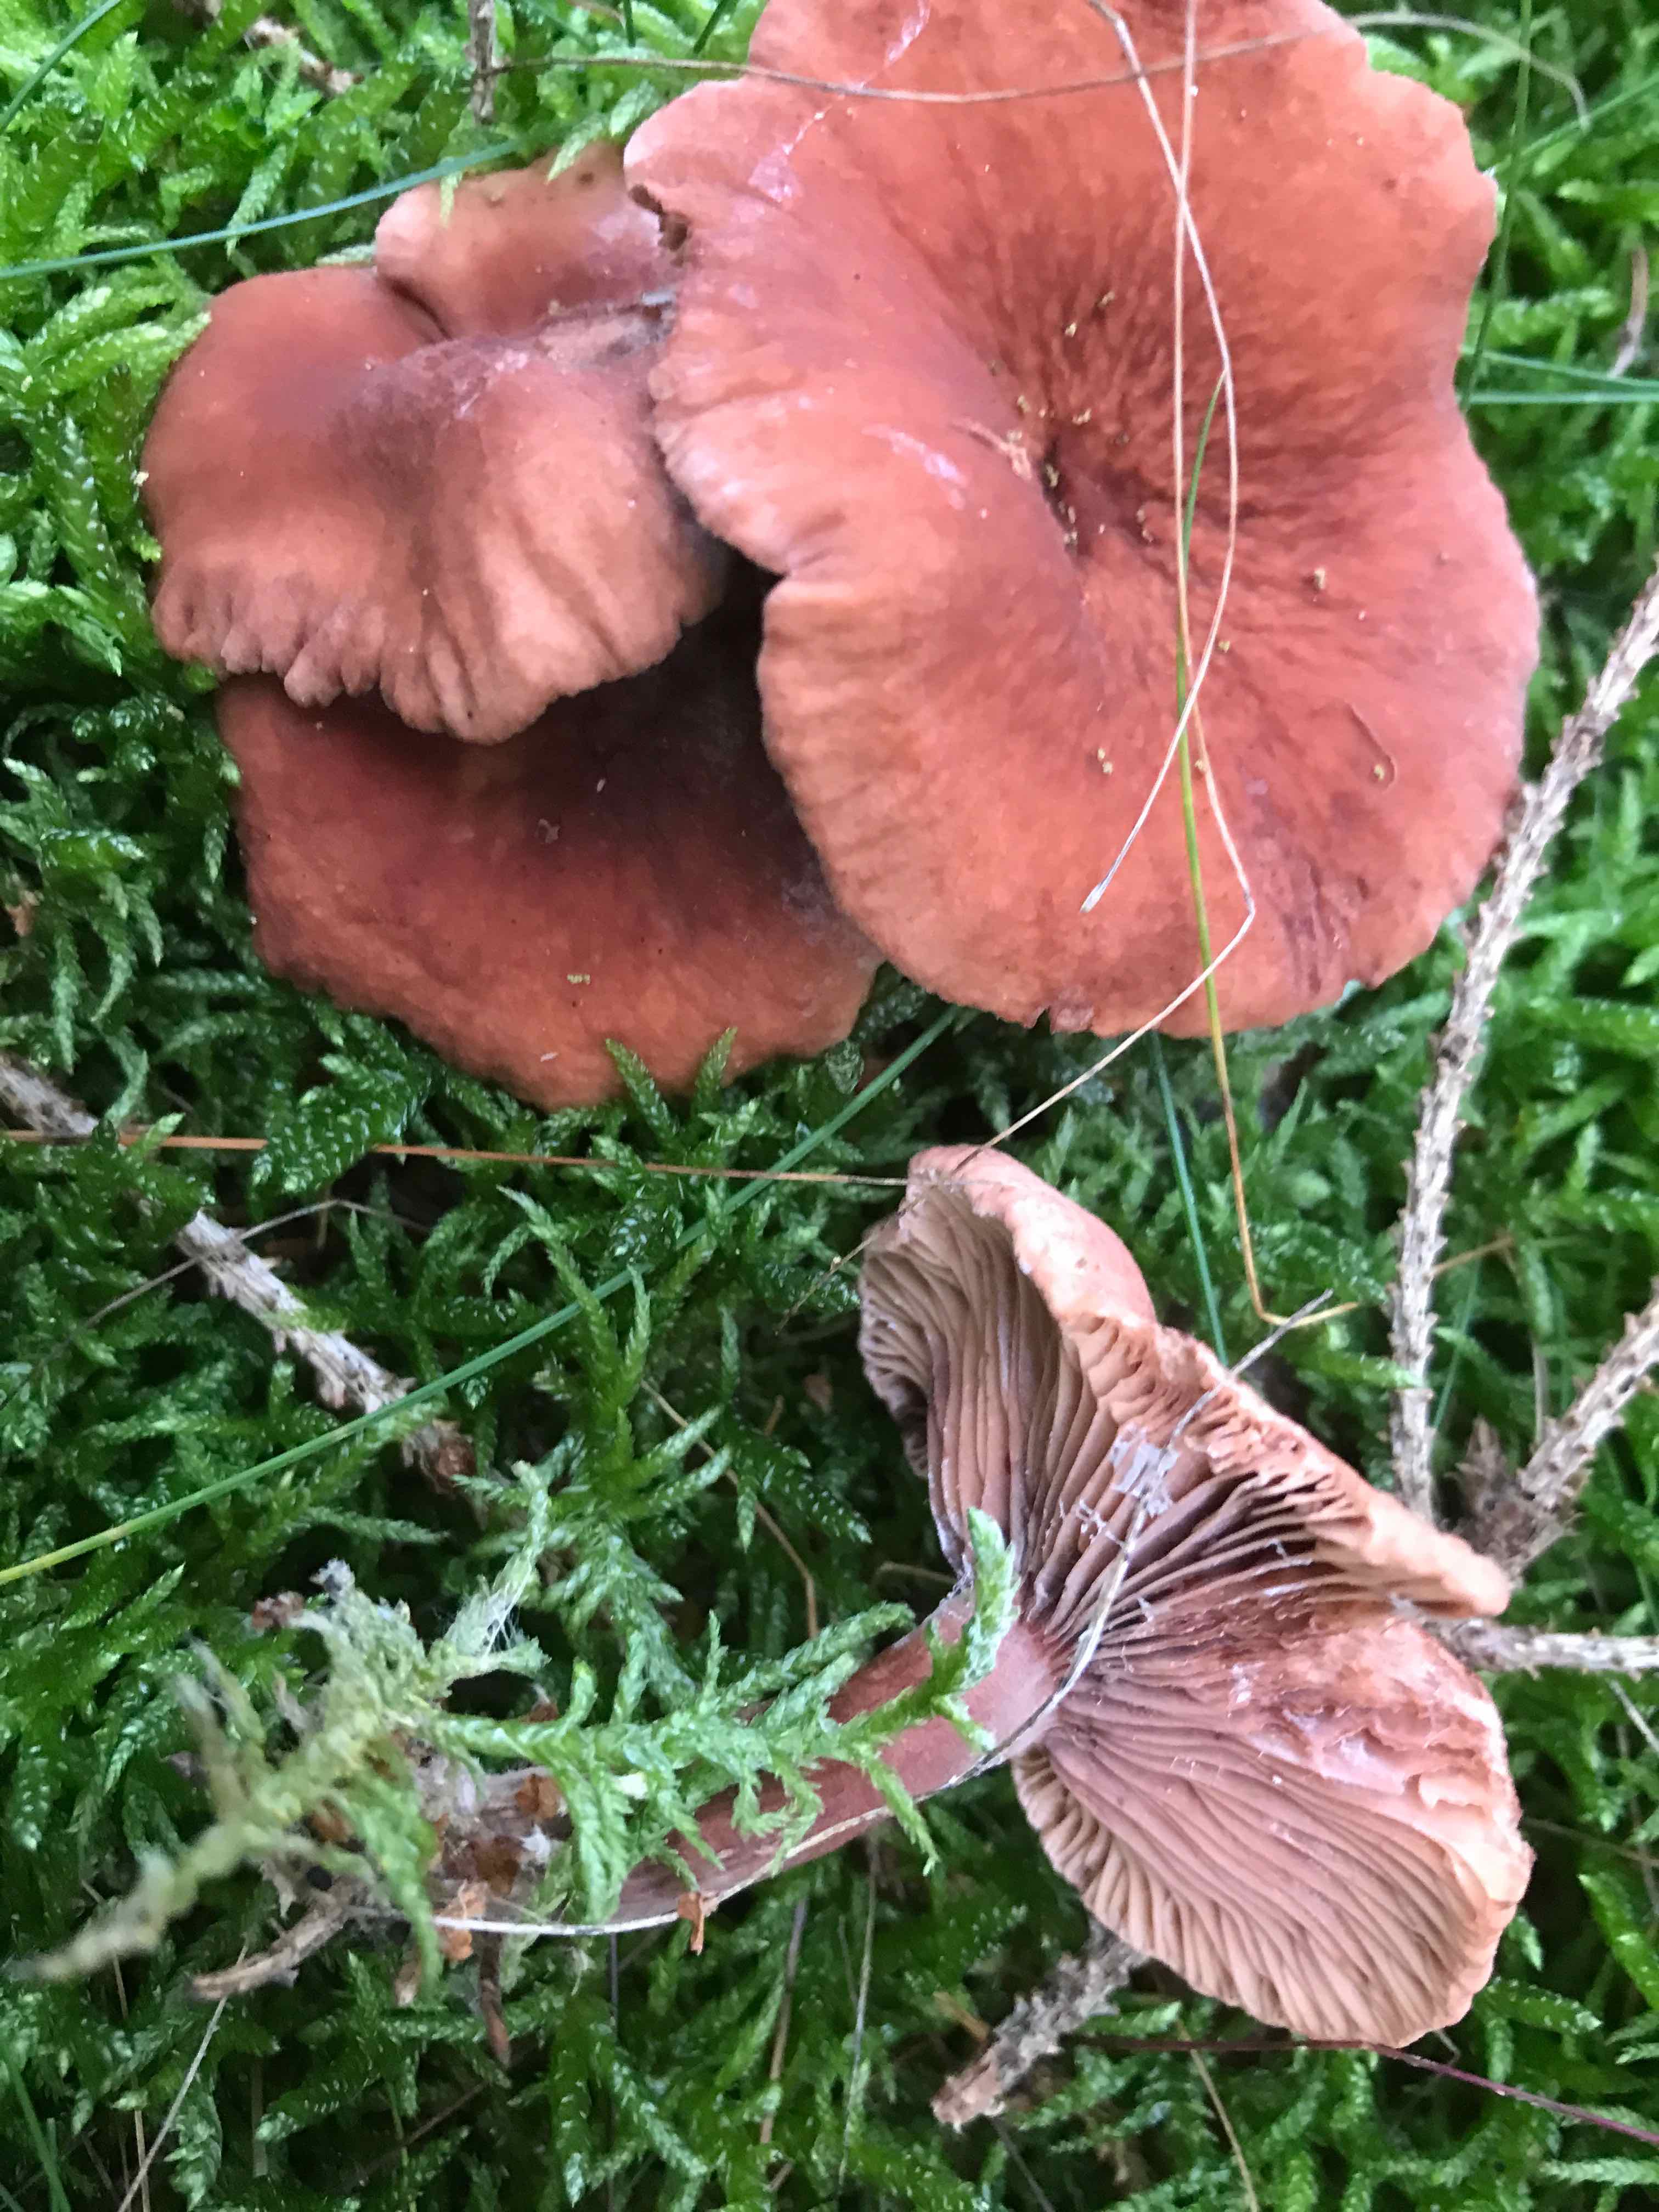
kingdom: Fungi
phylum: Basidiomycota
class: Agaricomycetes
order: Russulales
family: Russulaceae
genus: Lactarius
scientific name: Lactarius camphoratus
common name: kamfer-mælkehat
